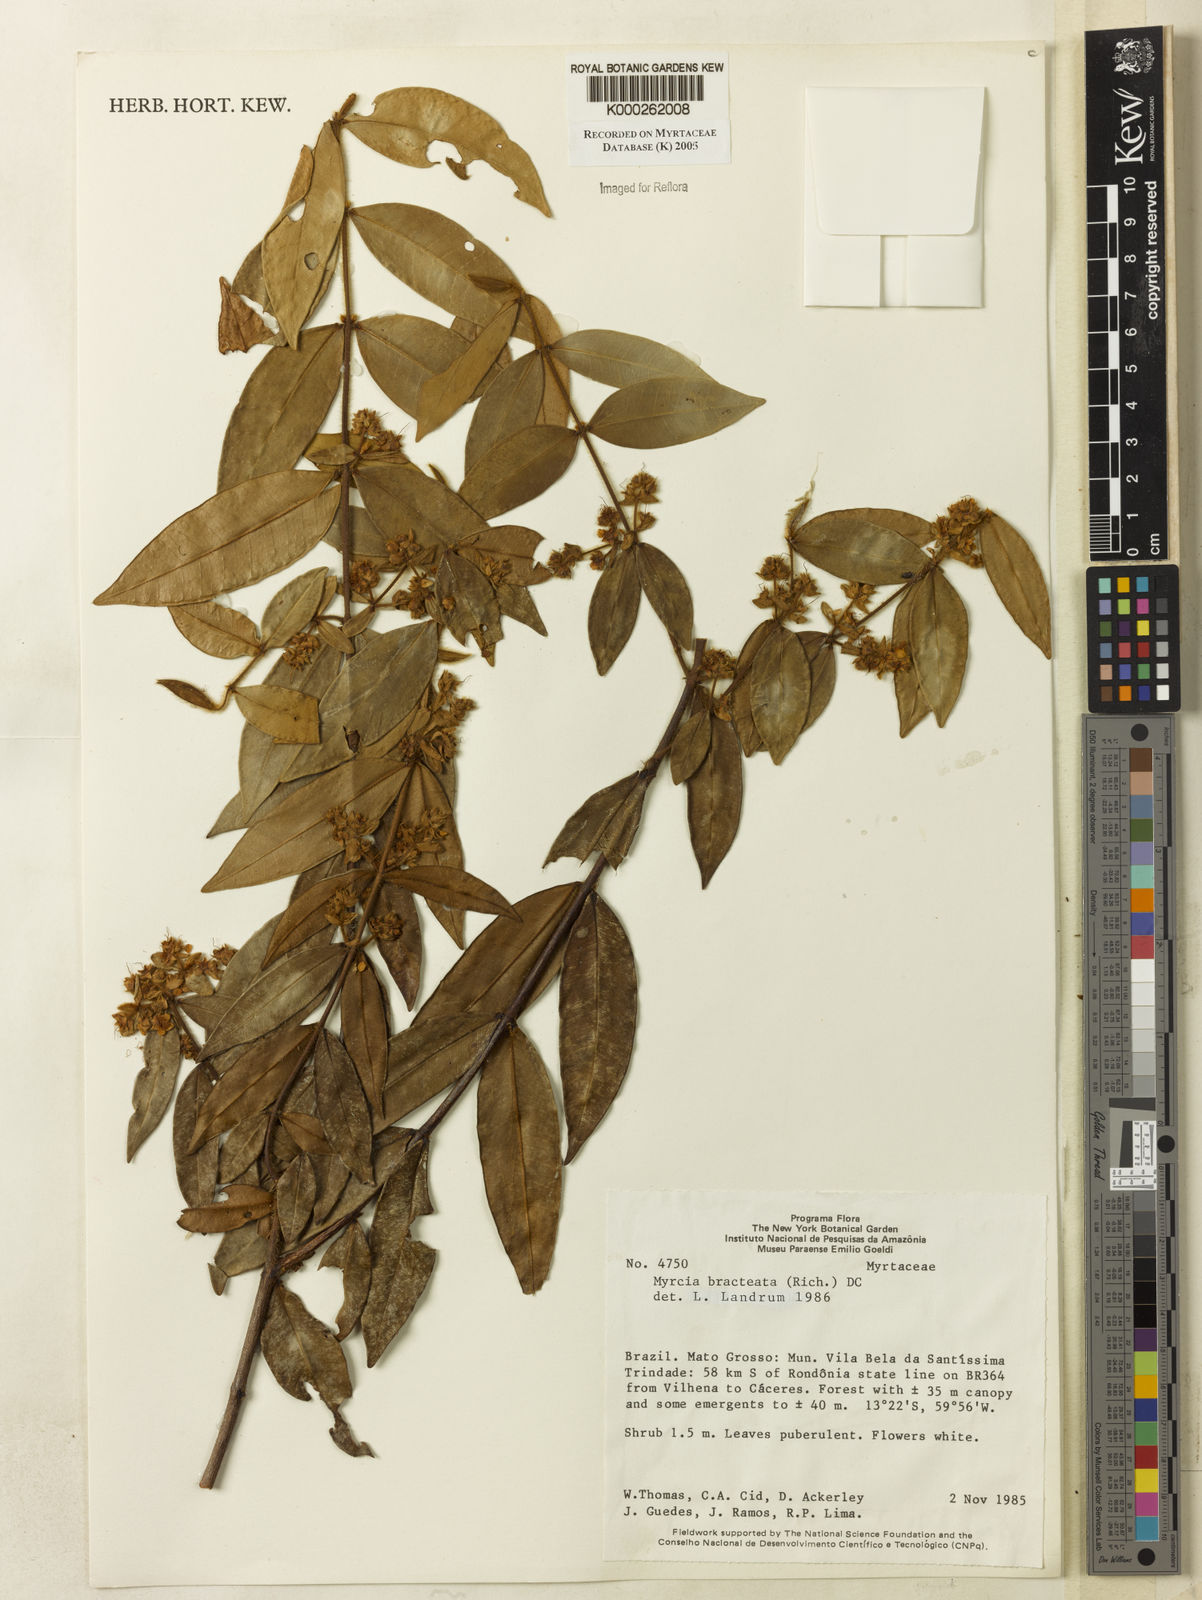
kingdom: Plantae
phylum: Tracheophyta
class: Magnoliopsida
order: Myrtales
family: Myrtaceae
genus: Myrcia
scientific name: Myrcia bracteata
